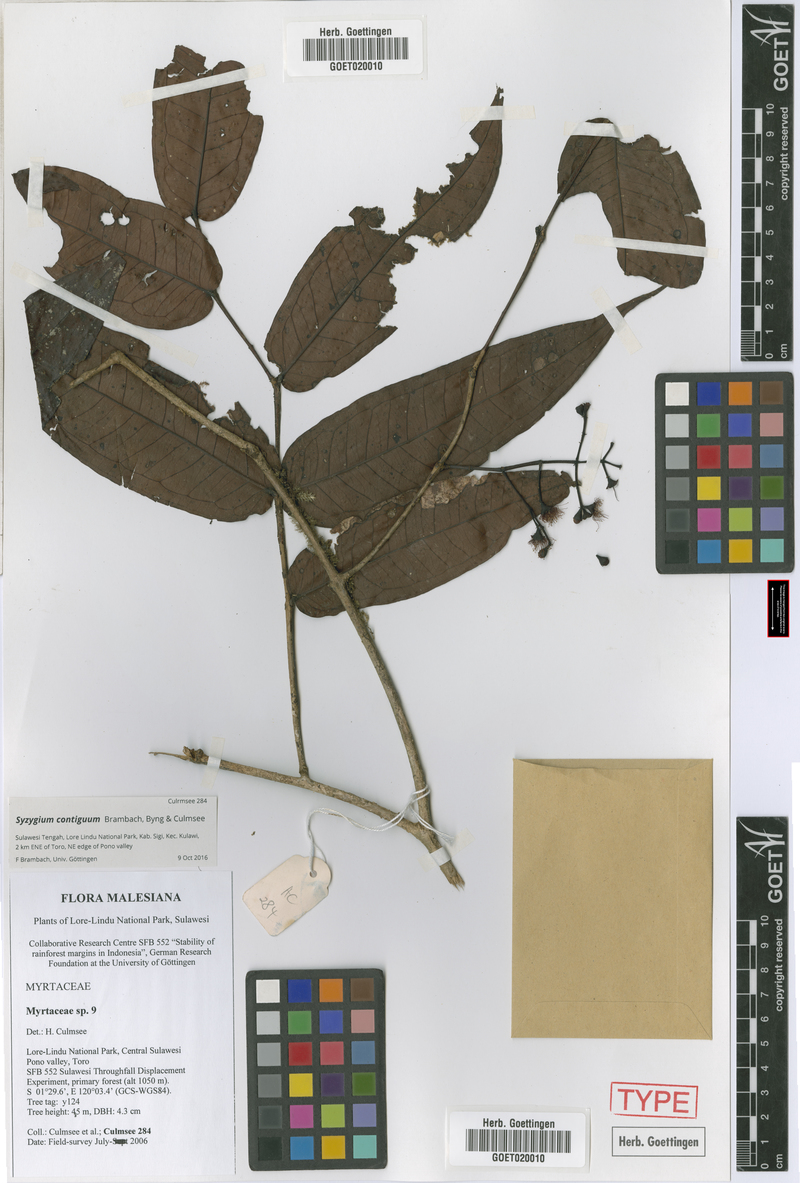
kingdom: Plantae
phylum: Tracheophyta
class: Magnoliopsida
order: Myrtales
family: Myrtaceae
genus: Syzygium
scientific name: Syzygium contiguum
